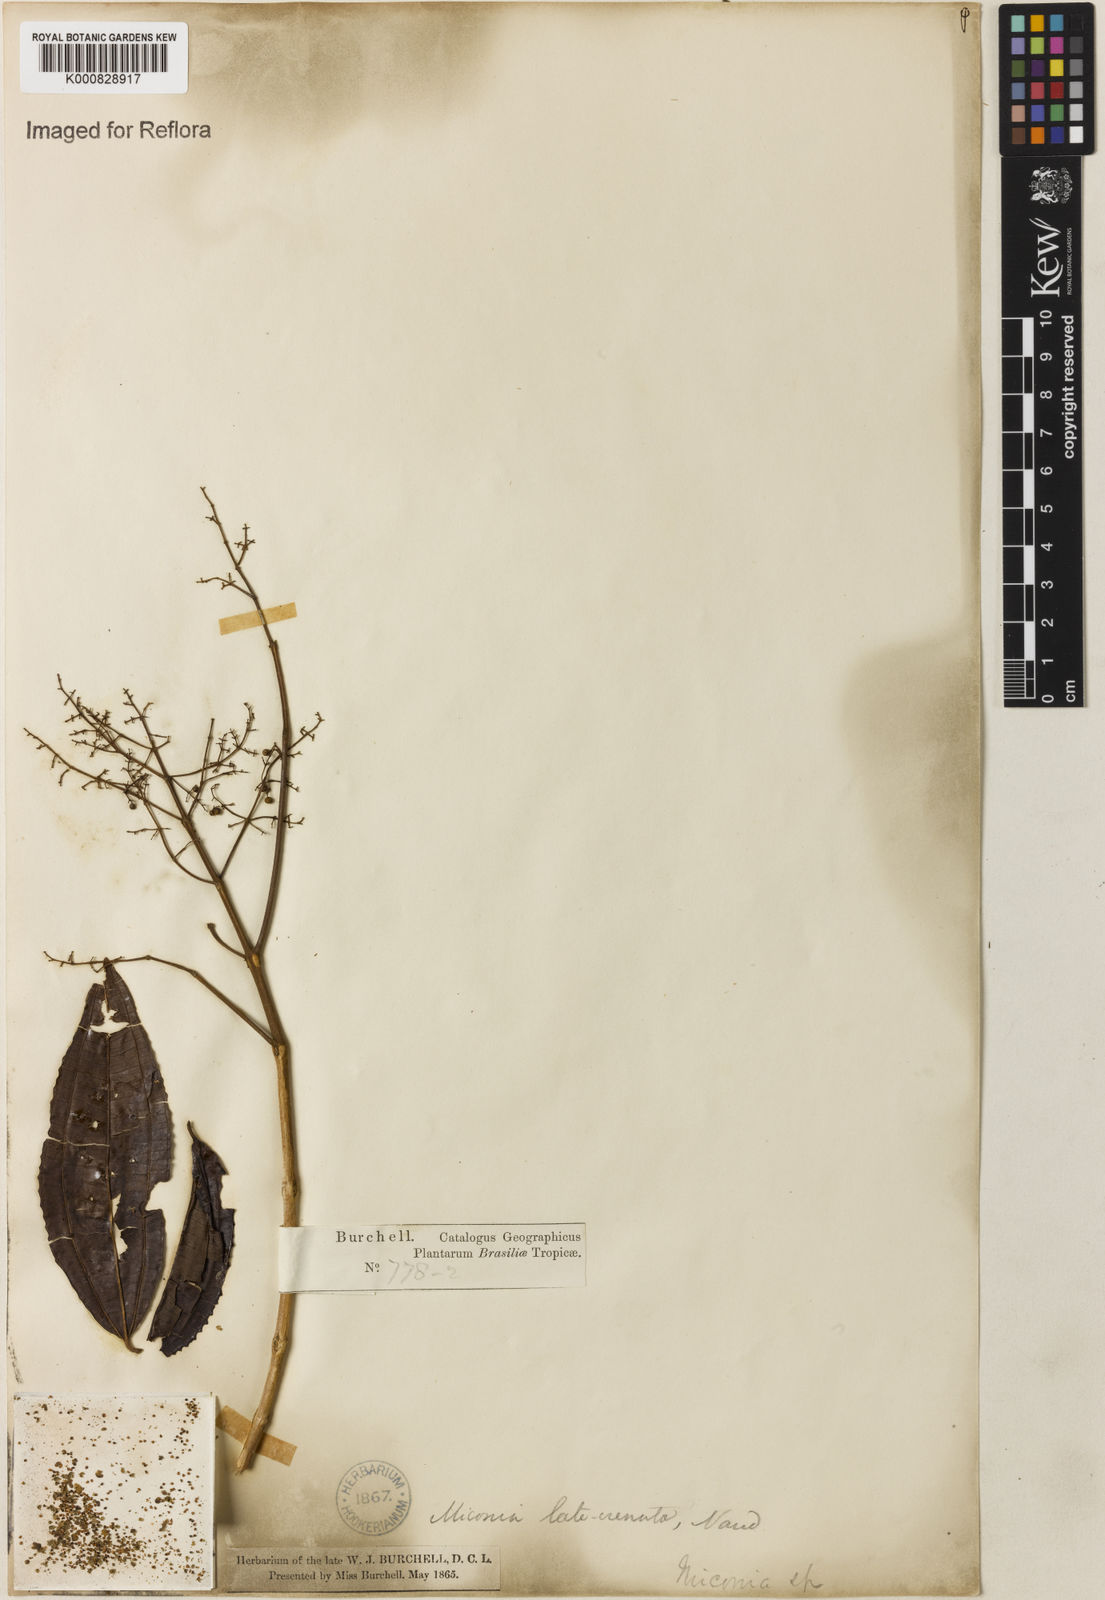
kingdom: Plantae
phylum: Tracheophyta
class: Magnoliopsida
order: Myrtales
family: Melastomataceae
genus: Miconia
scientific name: Miconia latecrenata
